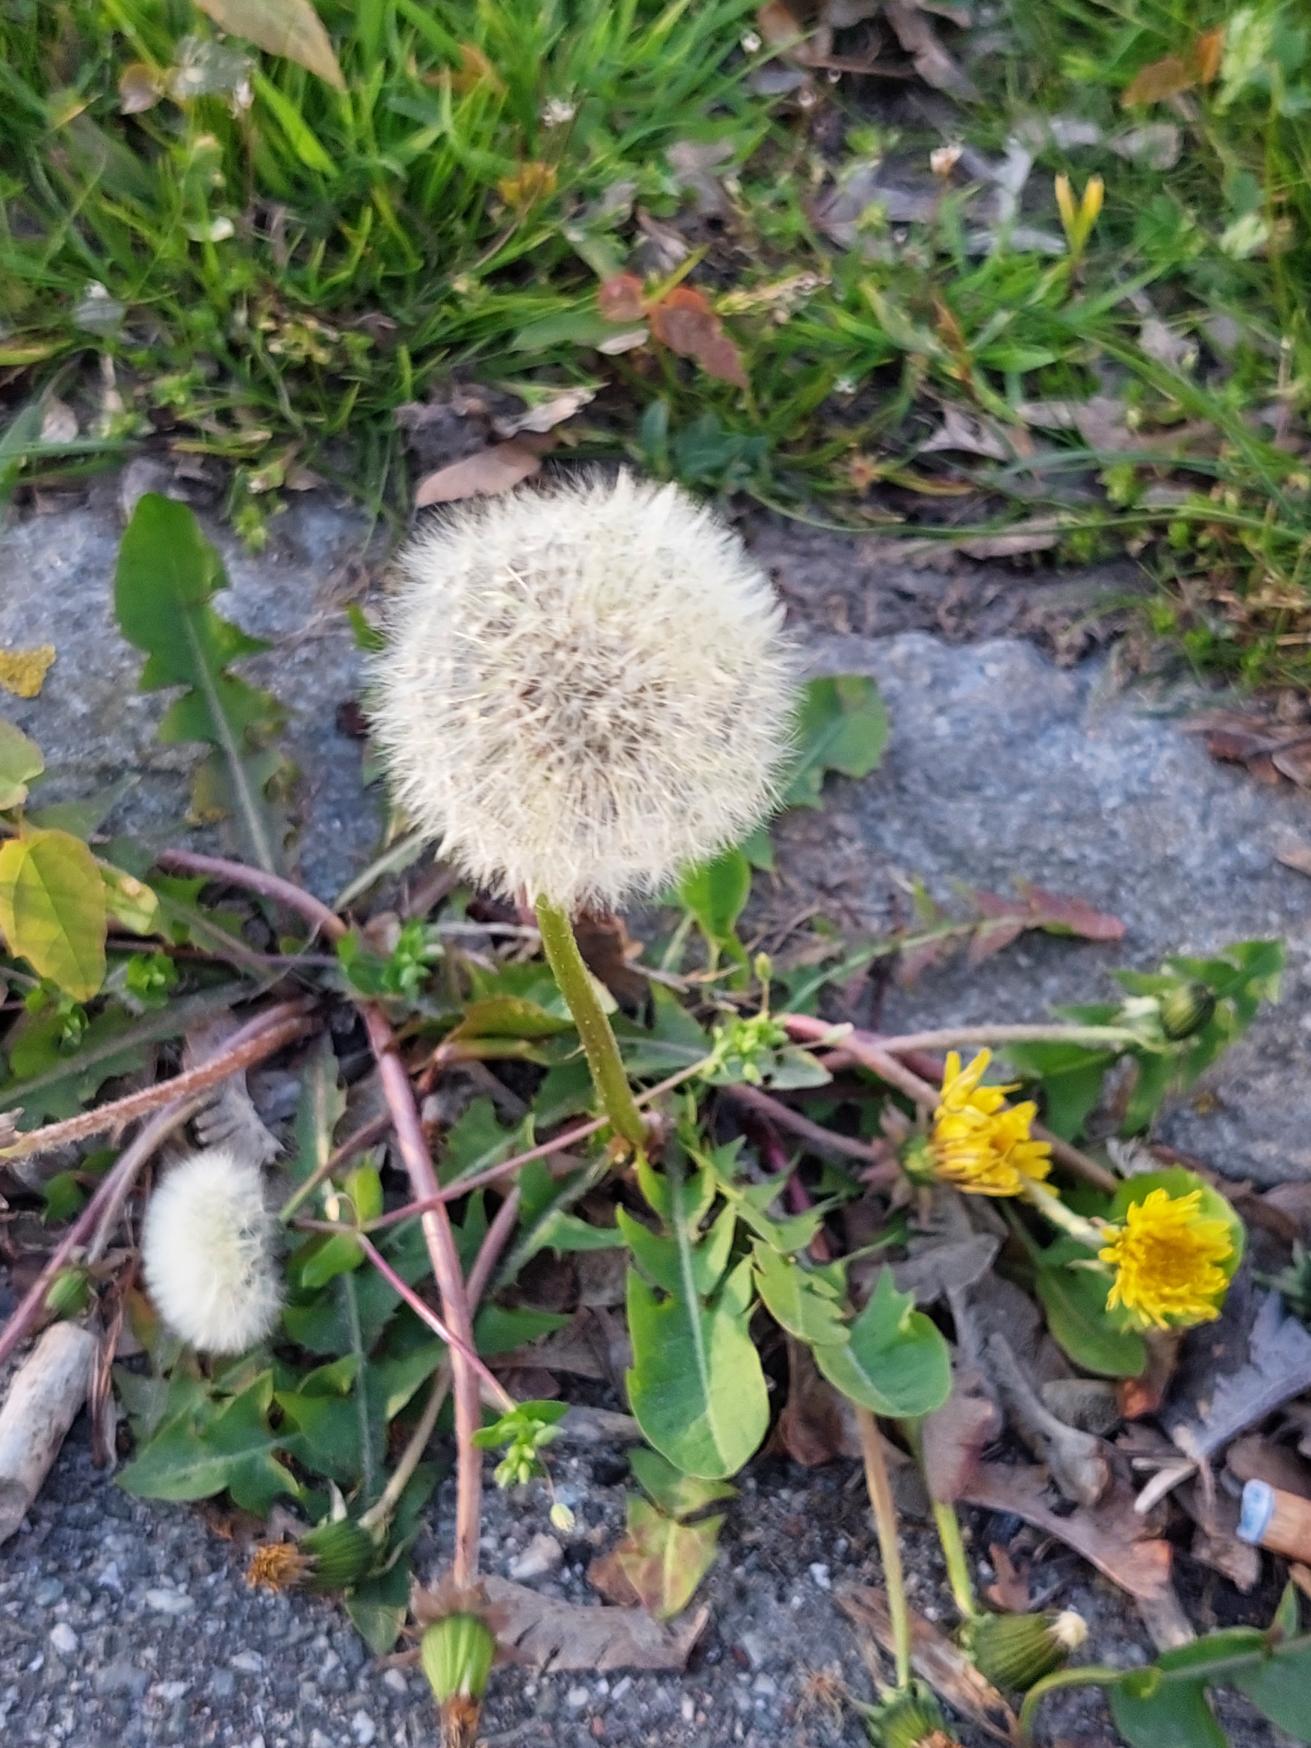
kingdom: Plantae
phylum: Tracheophyta
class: Magnoliopsida
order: Asterales
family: Asteraceae
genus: Taraxacum
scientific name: Taraxacum
